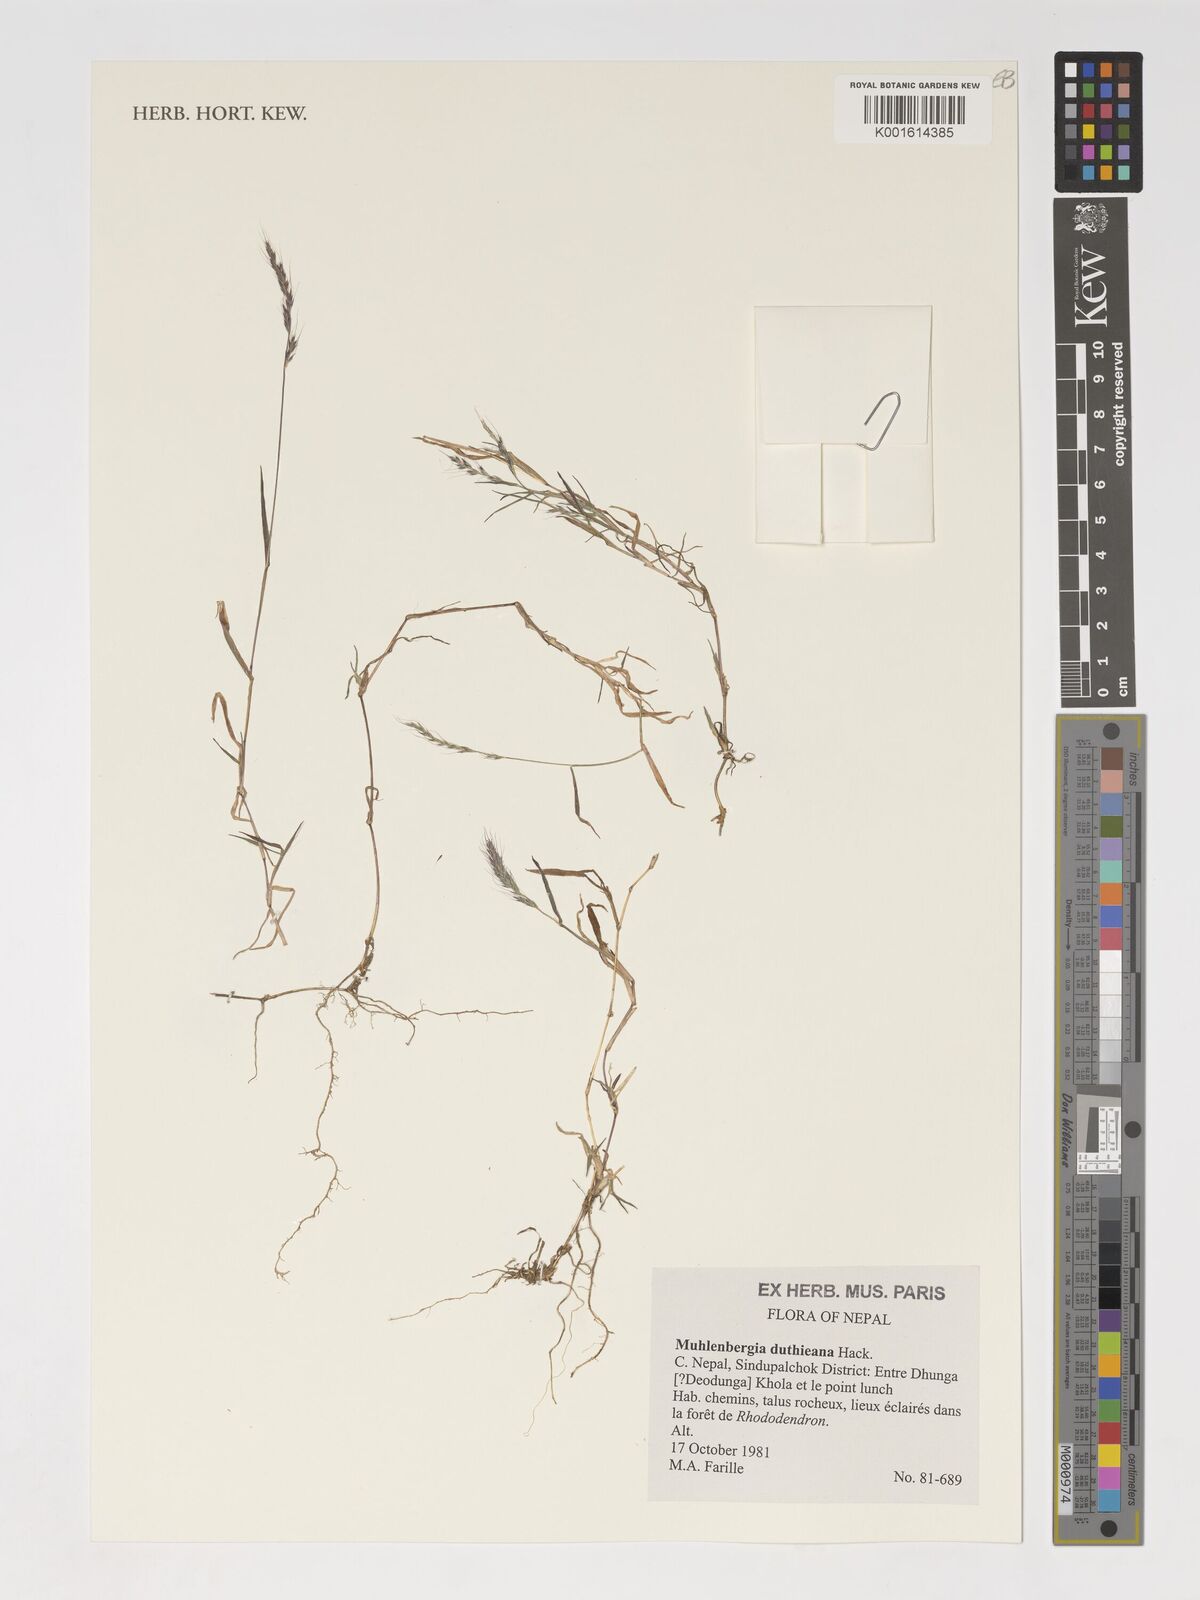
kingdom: Plantae
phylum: Tracheophyta
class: Liliopsida
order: Poales
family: Poaceae
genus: Muhlenbergia
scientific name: Muhlenbergia duthieana
